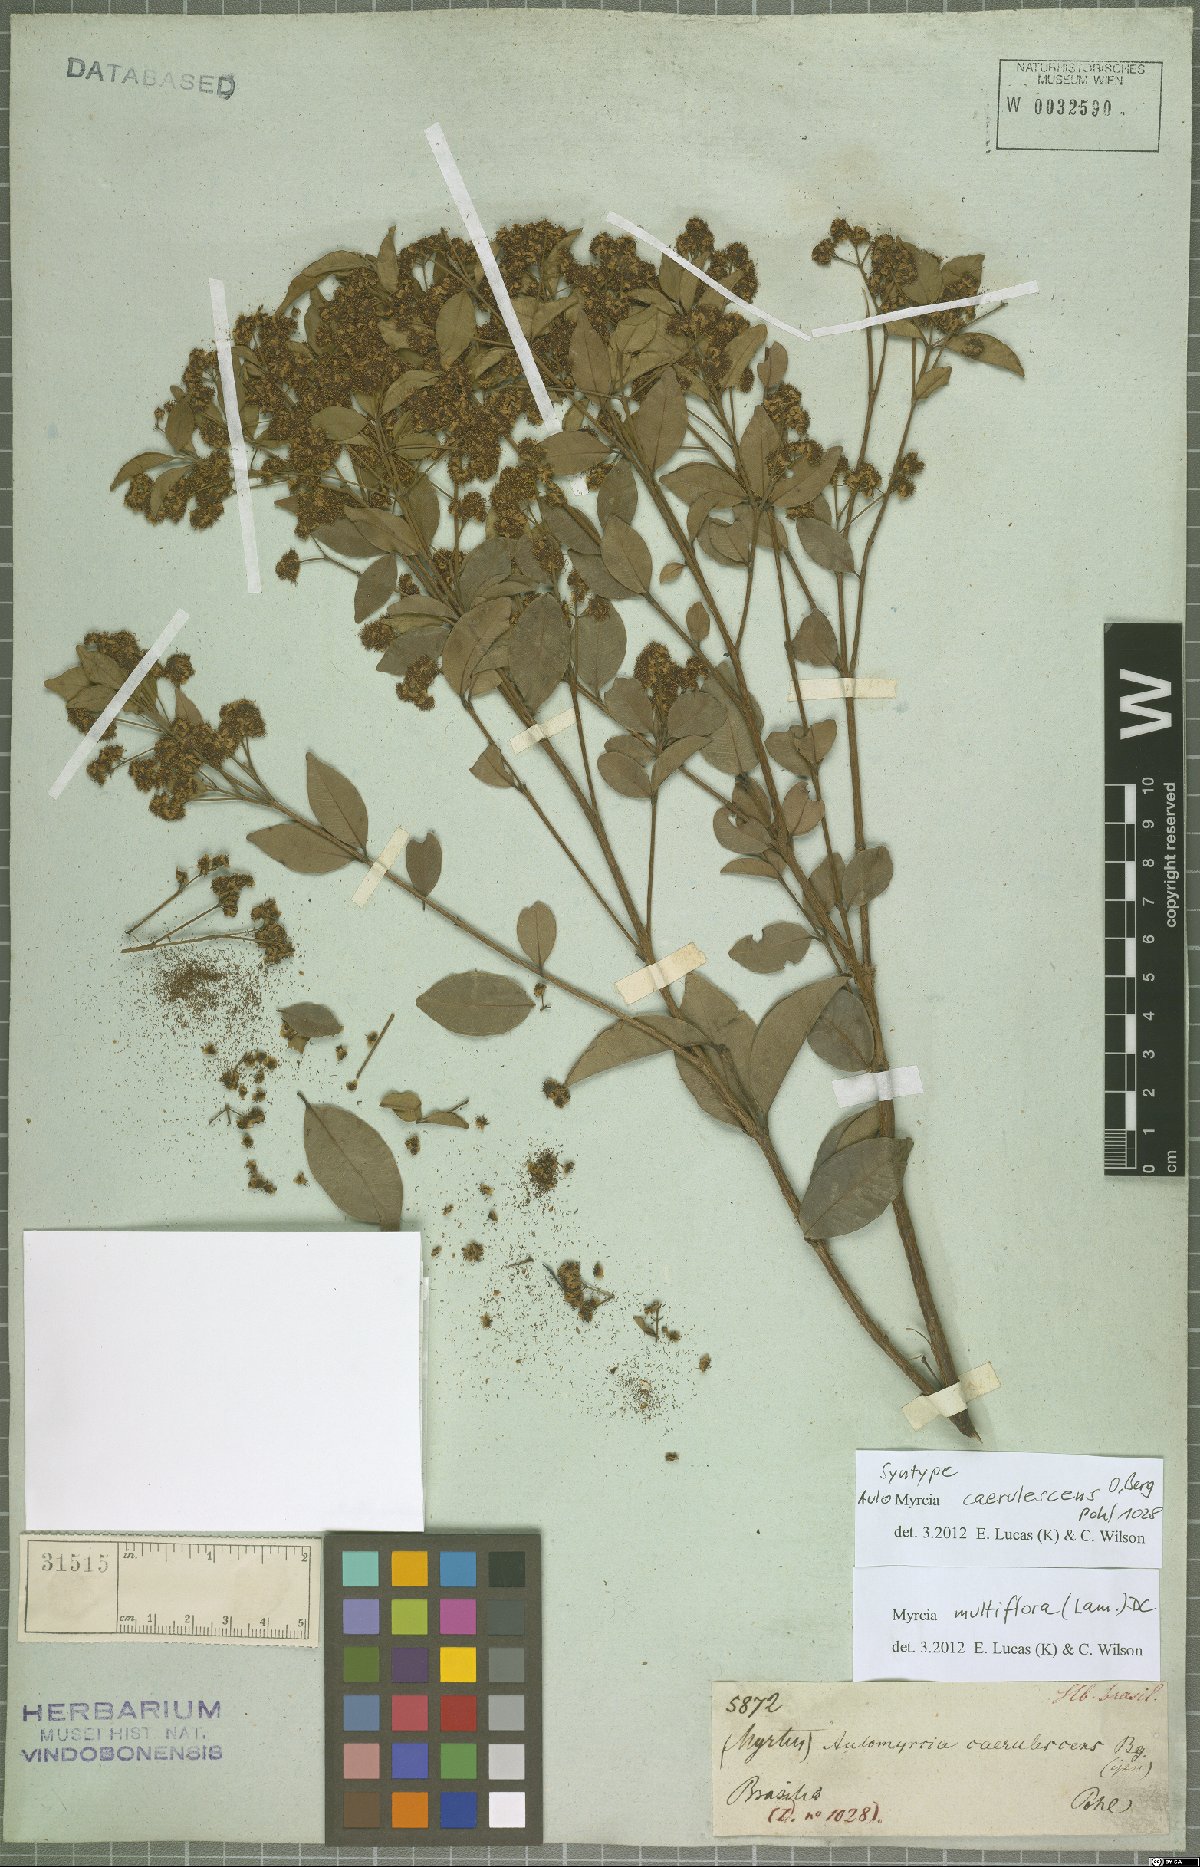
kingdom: Plantae
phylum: Tracheophyta
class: Magnoliopsida
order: Myrtales
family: Myrtaceae
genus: Myrcia
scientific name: Myrcia multiflora
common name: Pedra hume
